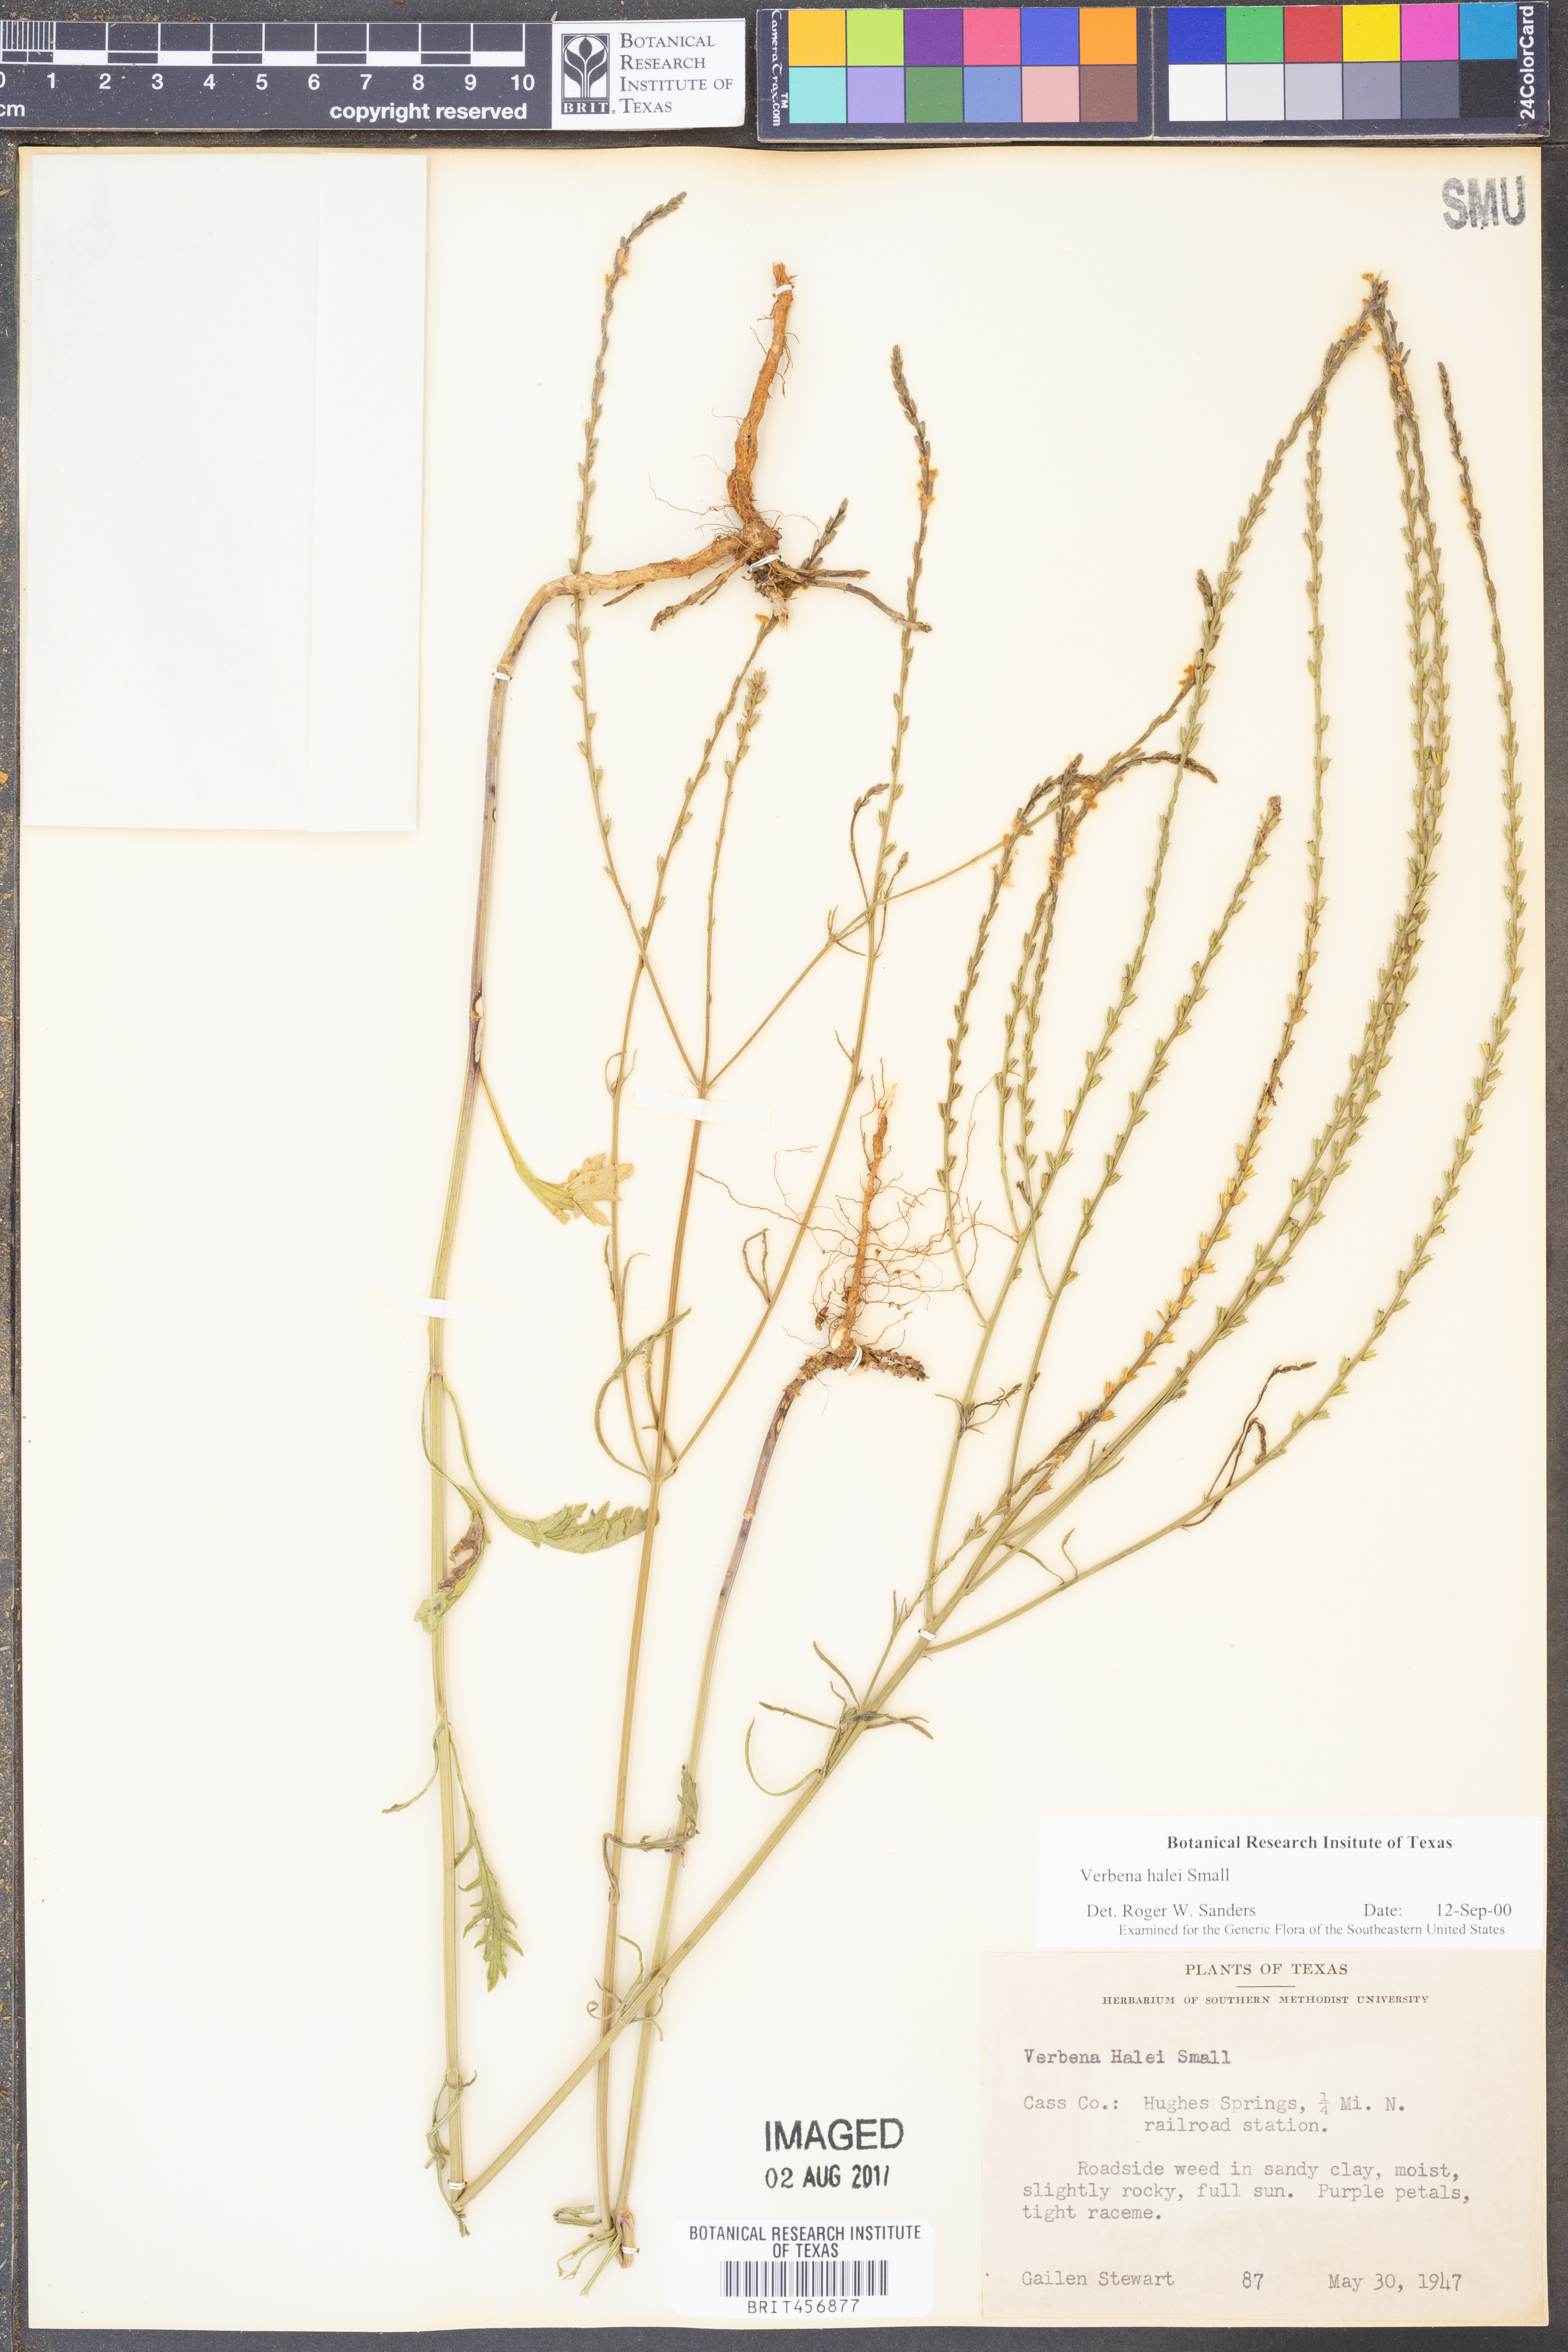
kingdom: Plantae
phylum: Tracheophyta
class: Magnoliopsida
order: Lamiales
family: Verbenaceae
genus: Verbena
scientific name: Verbena halei
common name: Texas vervain
